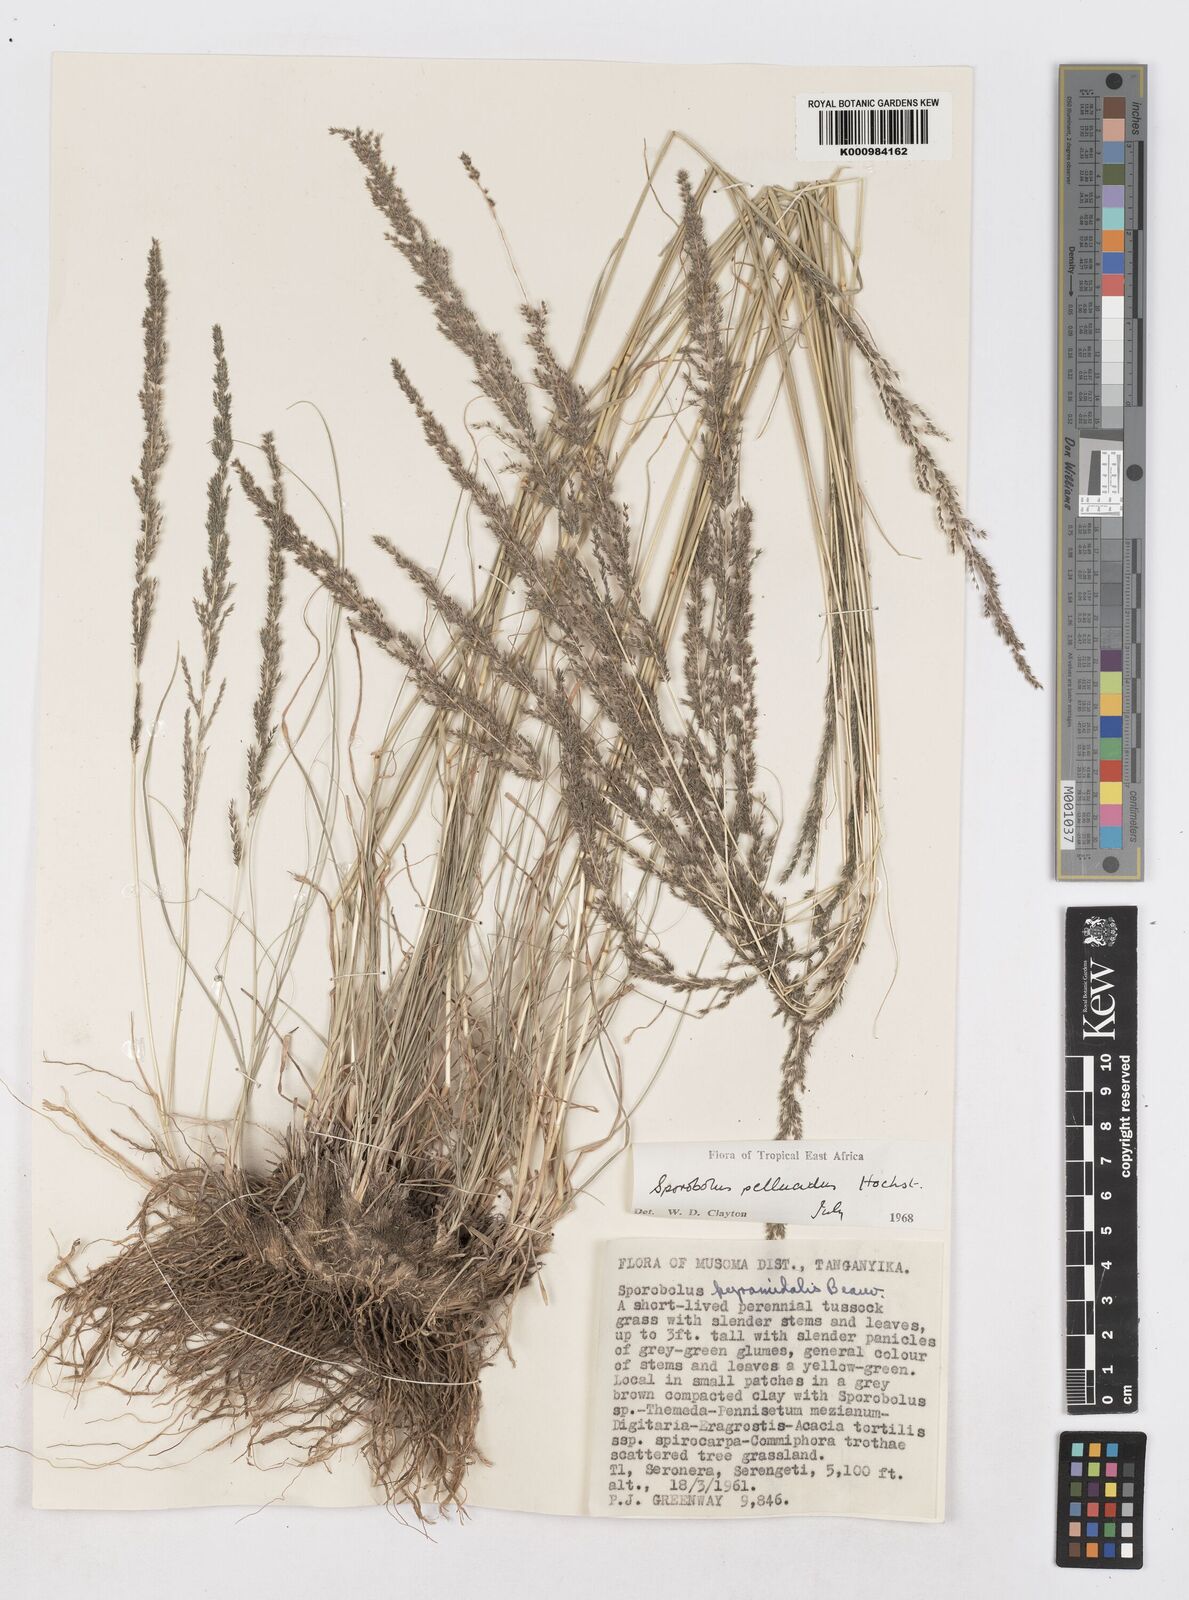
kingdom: Plantae
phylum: Tracheophyta
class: Liliopsida
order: Poales
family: Poaceae
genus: Sporobolus
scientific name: Sporobolus pellucidus
